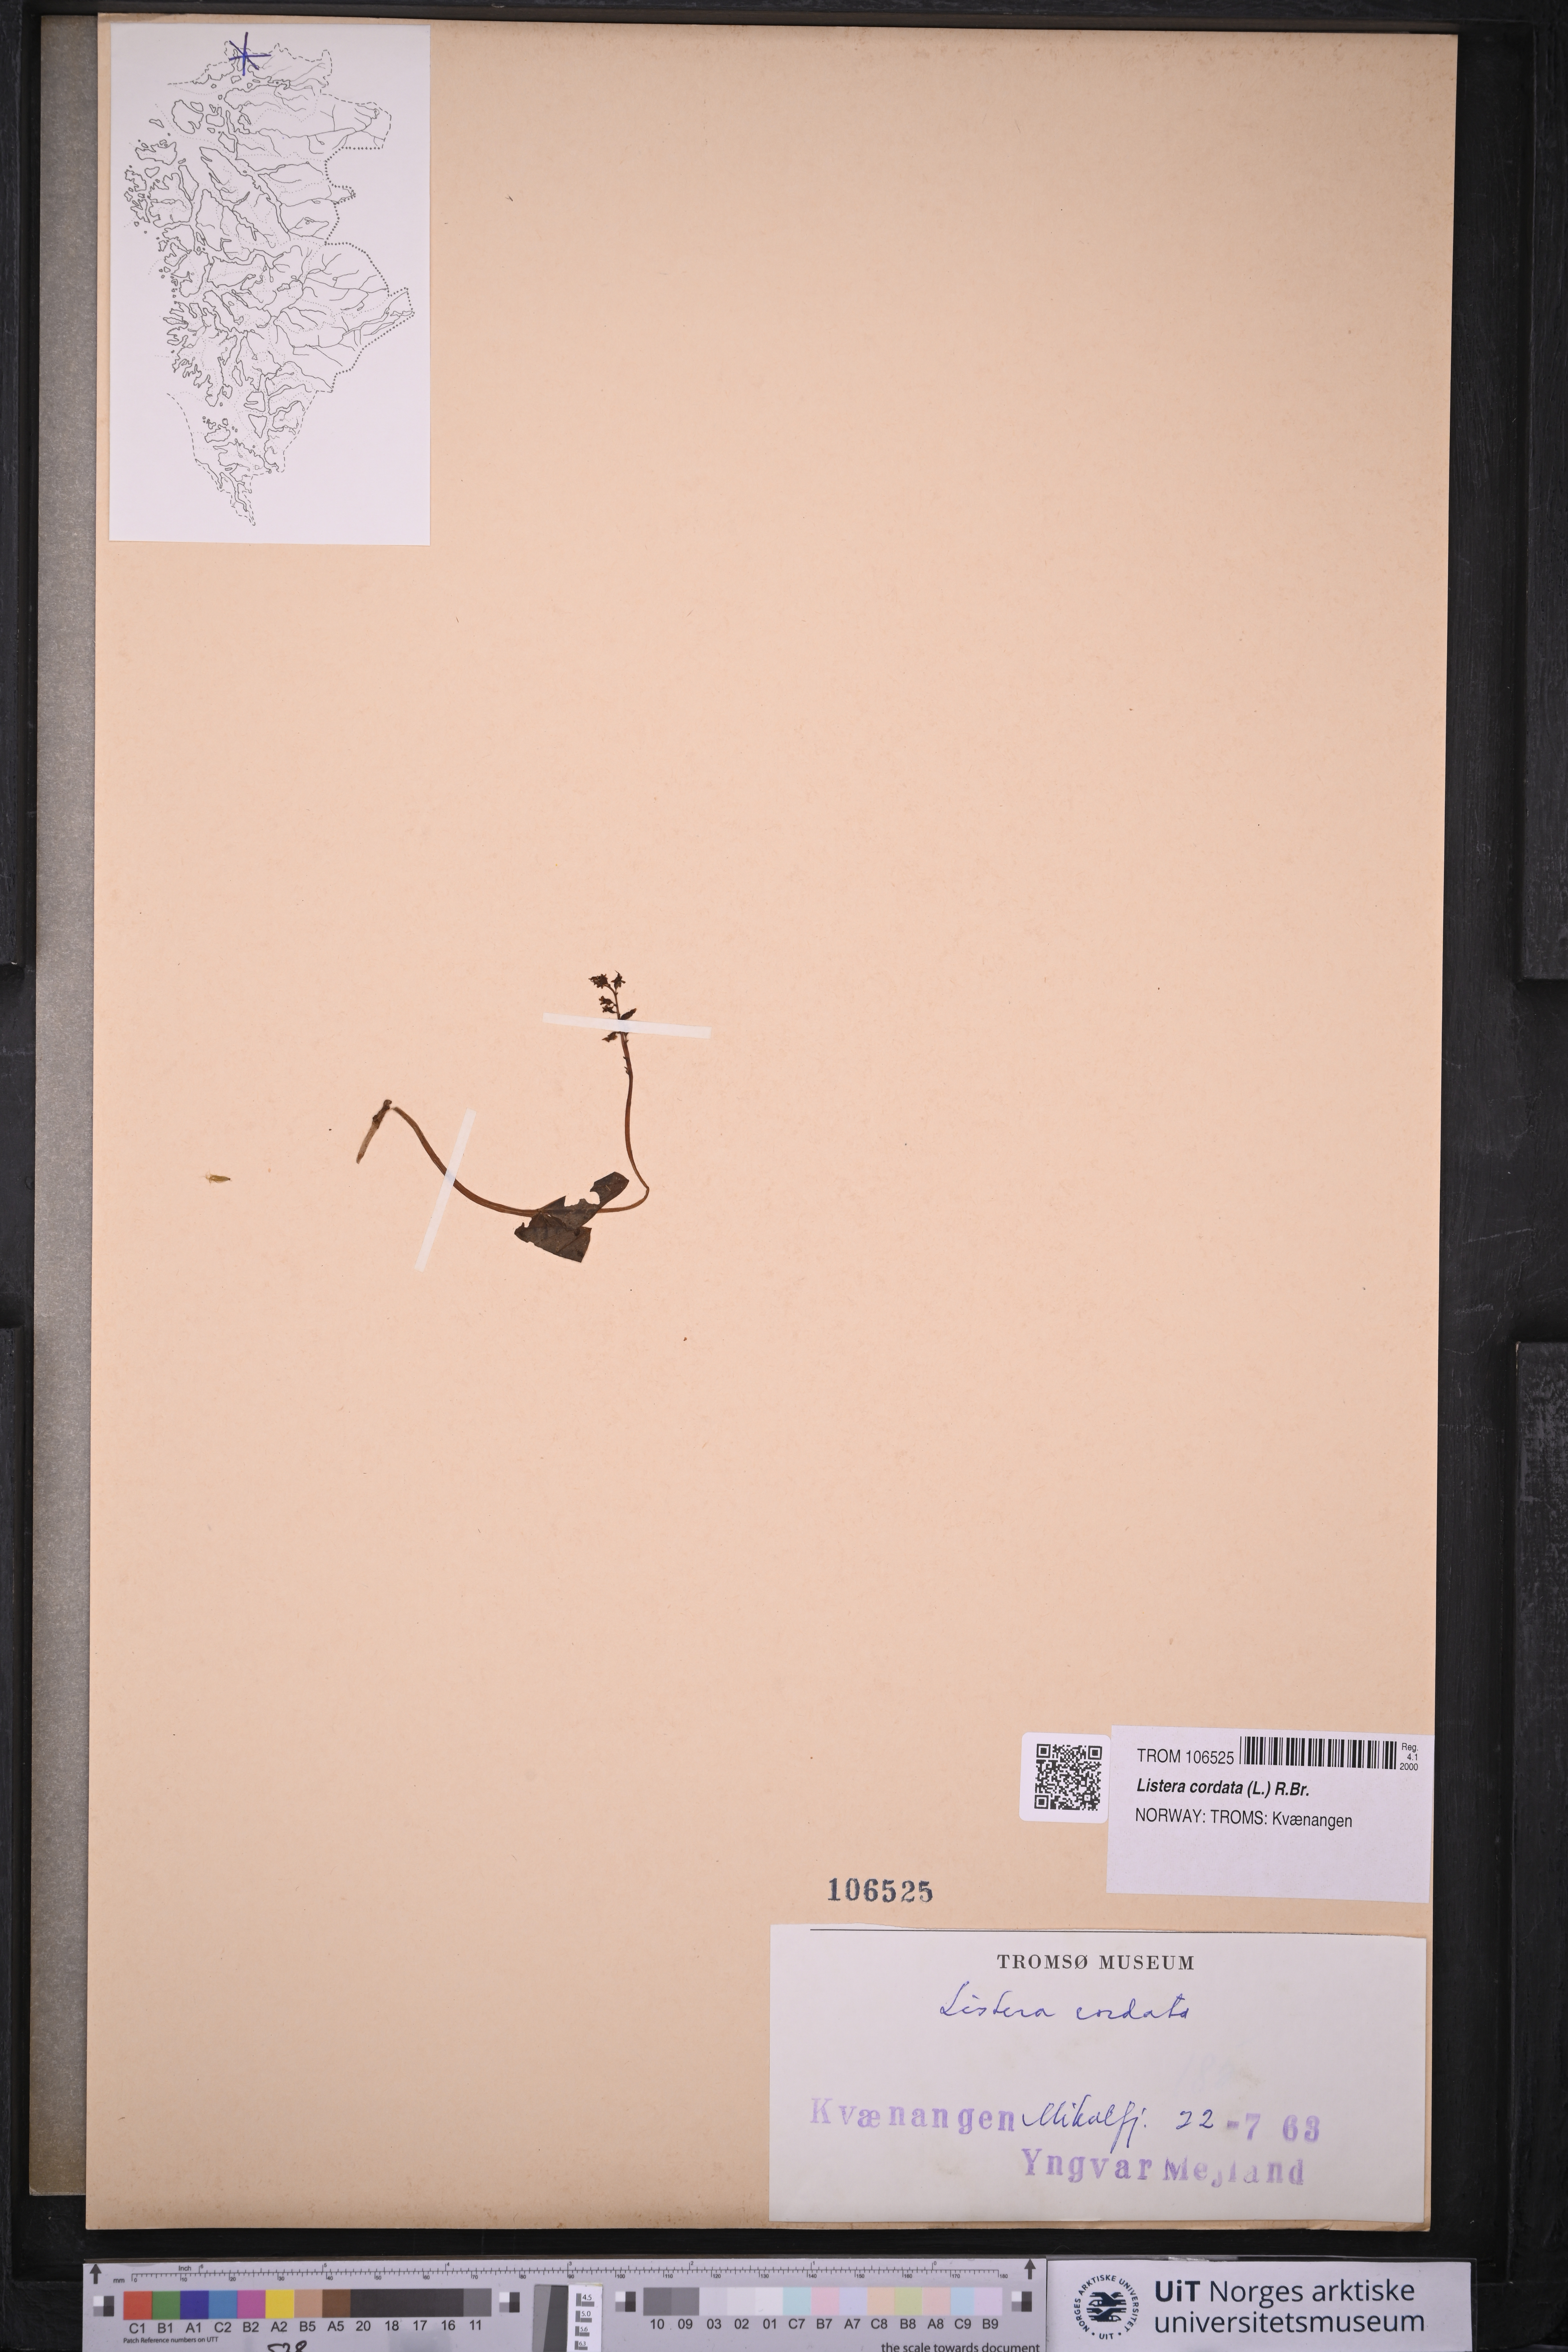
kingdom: Plantae
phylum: Tracheophyta
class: Liliopsida
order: Asparagales
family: Orchidaceae
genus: Neottia
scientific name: Neottia cordata
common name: Lesser twayblade
